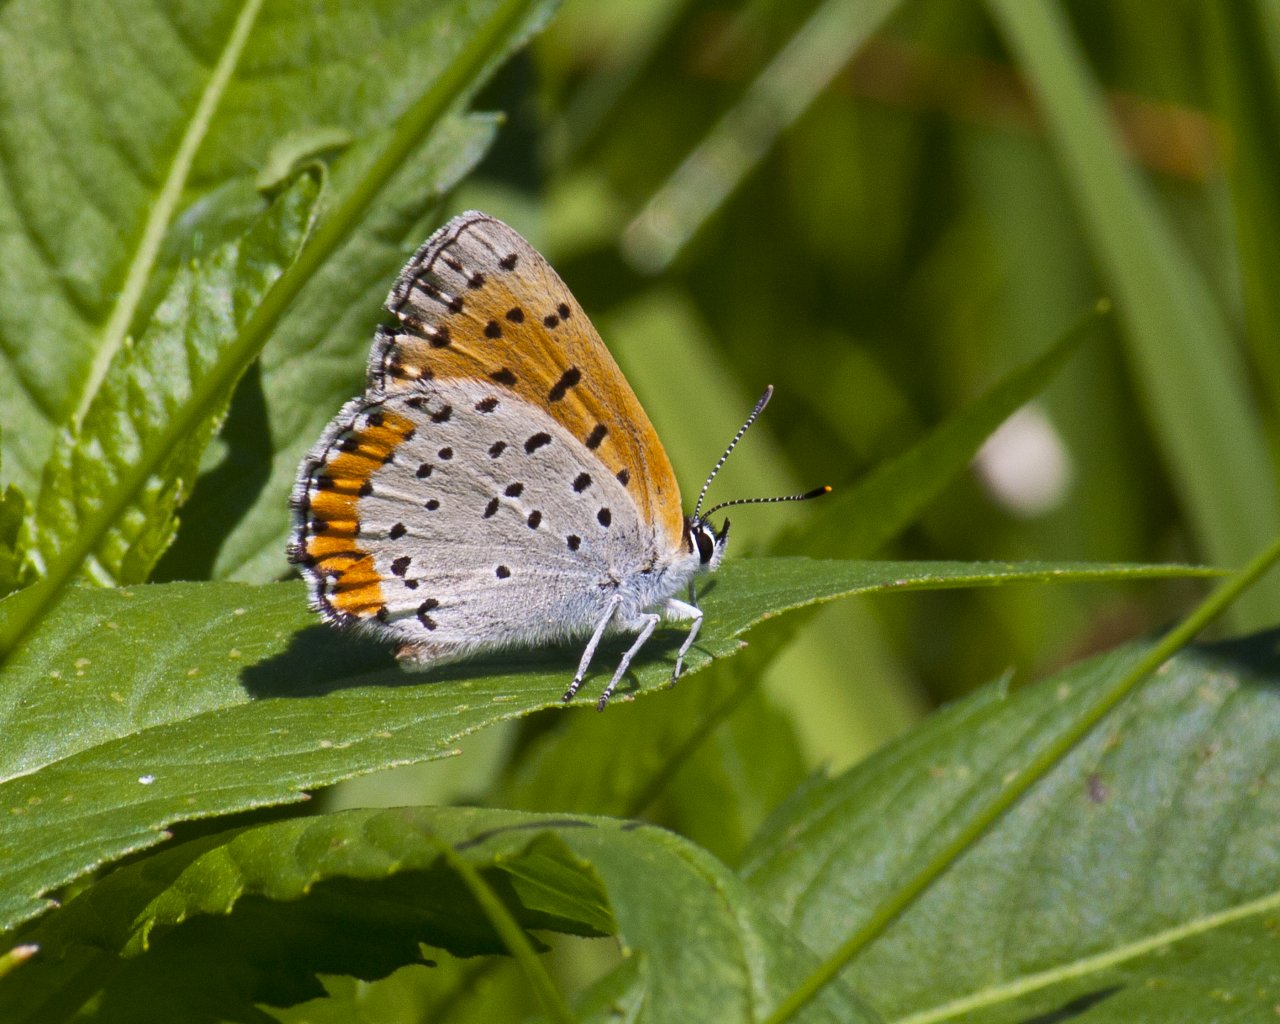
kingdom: Animalia
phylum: Arthropoda
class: Insecta
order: Lepidoptera
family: Sesiidae
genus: Sesia
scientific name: Sesia Lycaena hyllus
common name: Bronze Copper
